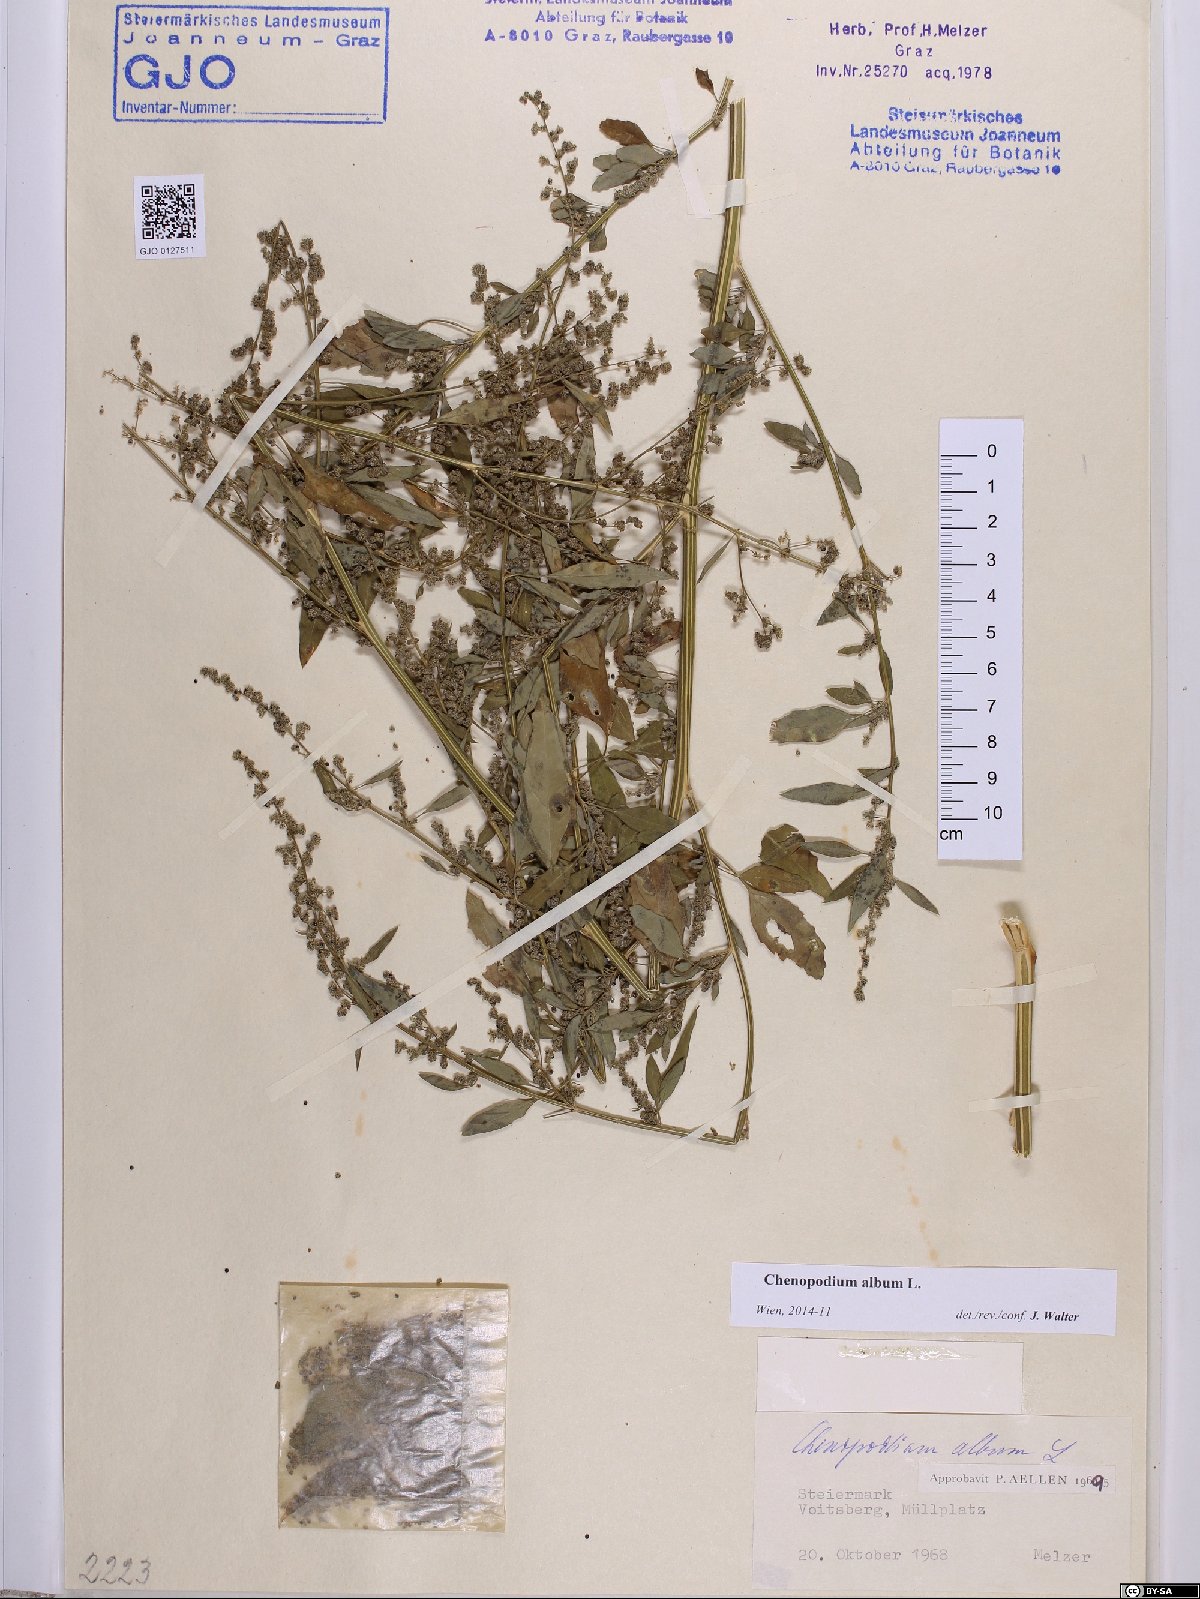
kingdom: Plantae
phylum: Tracheophyta
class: Magnoliopsida
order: Caryophyllales
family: Amaranthaceae
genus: Chenopodium
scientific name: Chenopodium album
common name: Fat-hen
